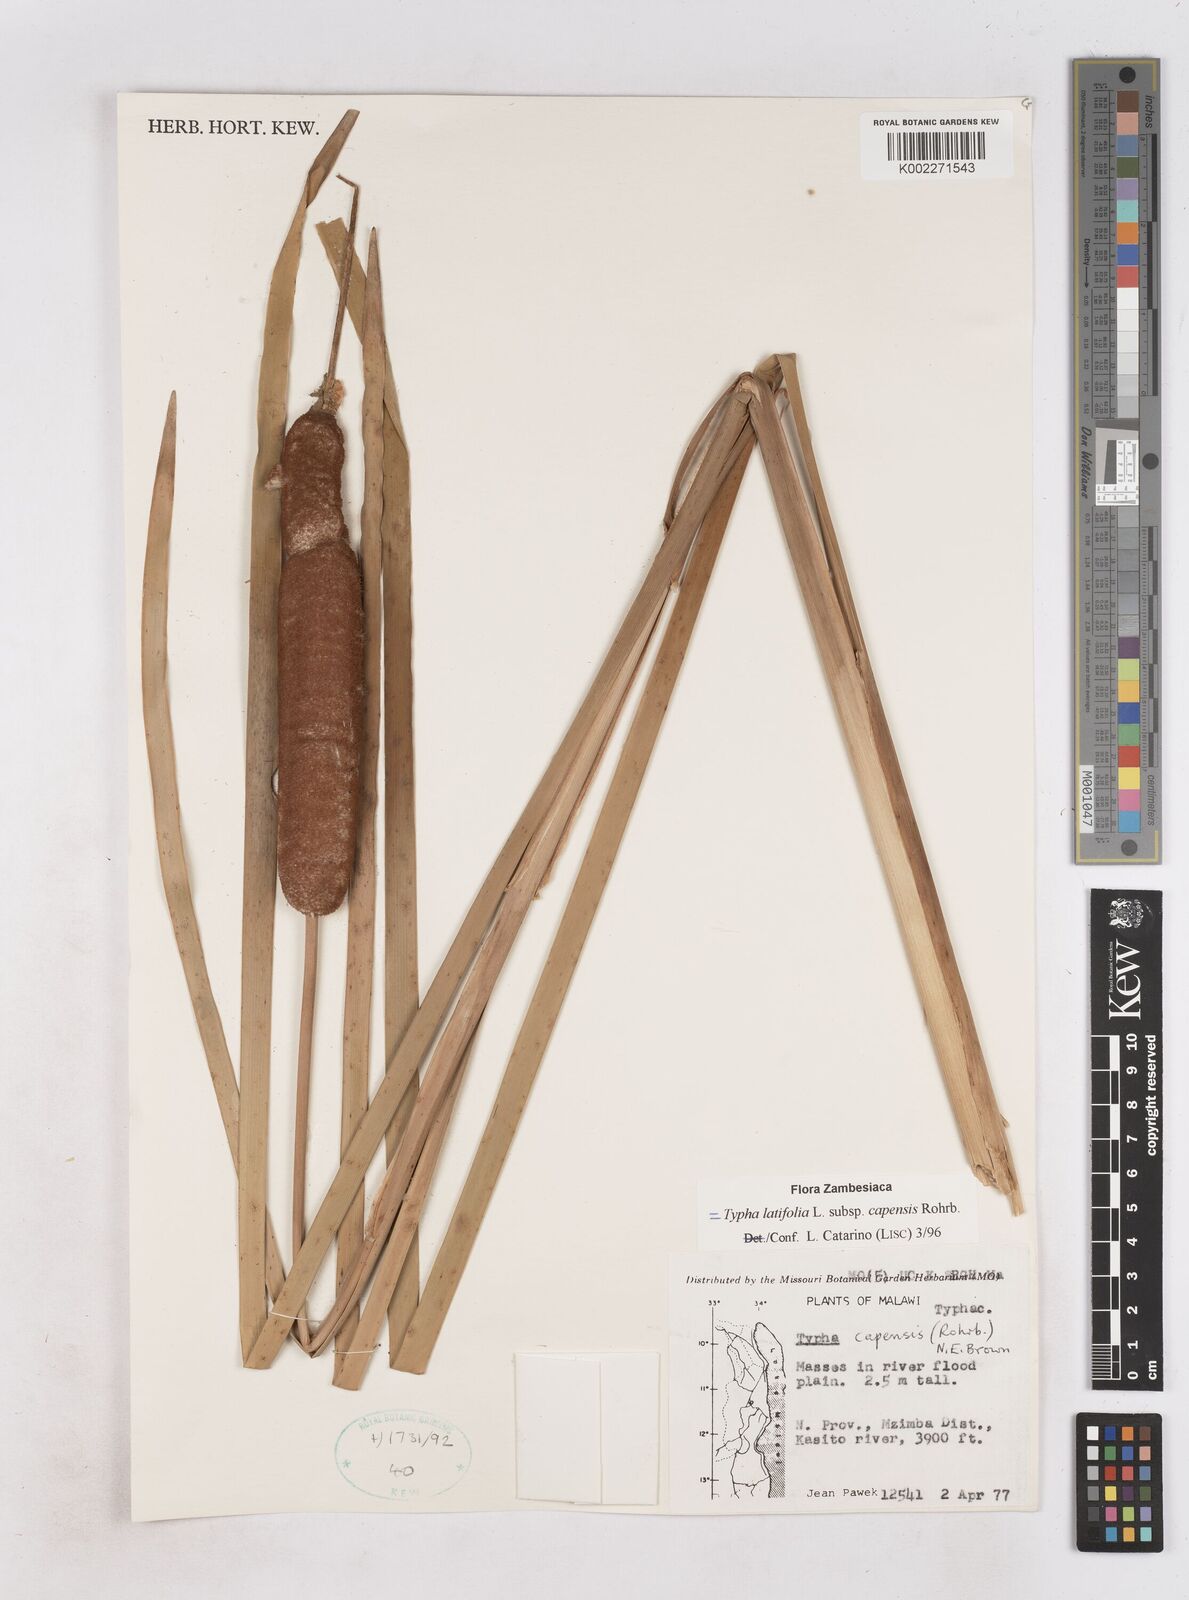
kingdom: Plantae
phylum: Tracheophyta
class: Liliopsida
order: Poales
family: Typhaceae
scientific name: Typhaceae
